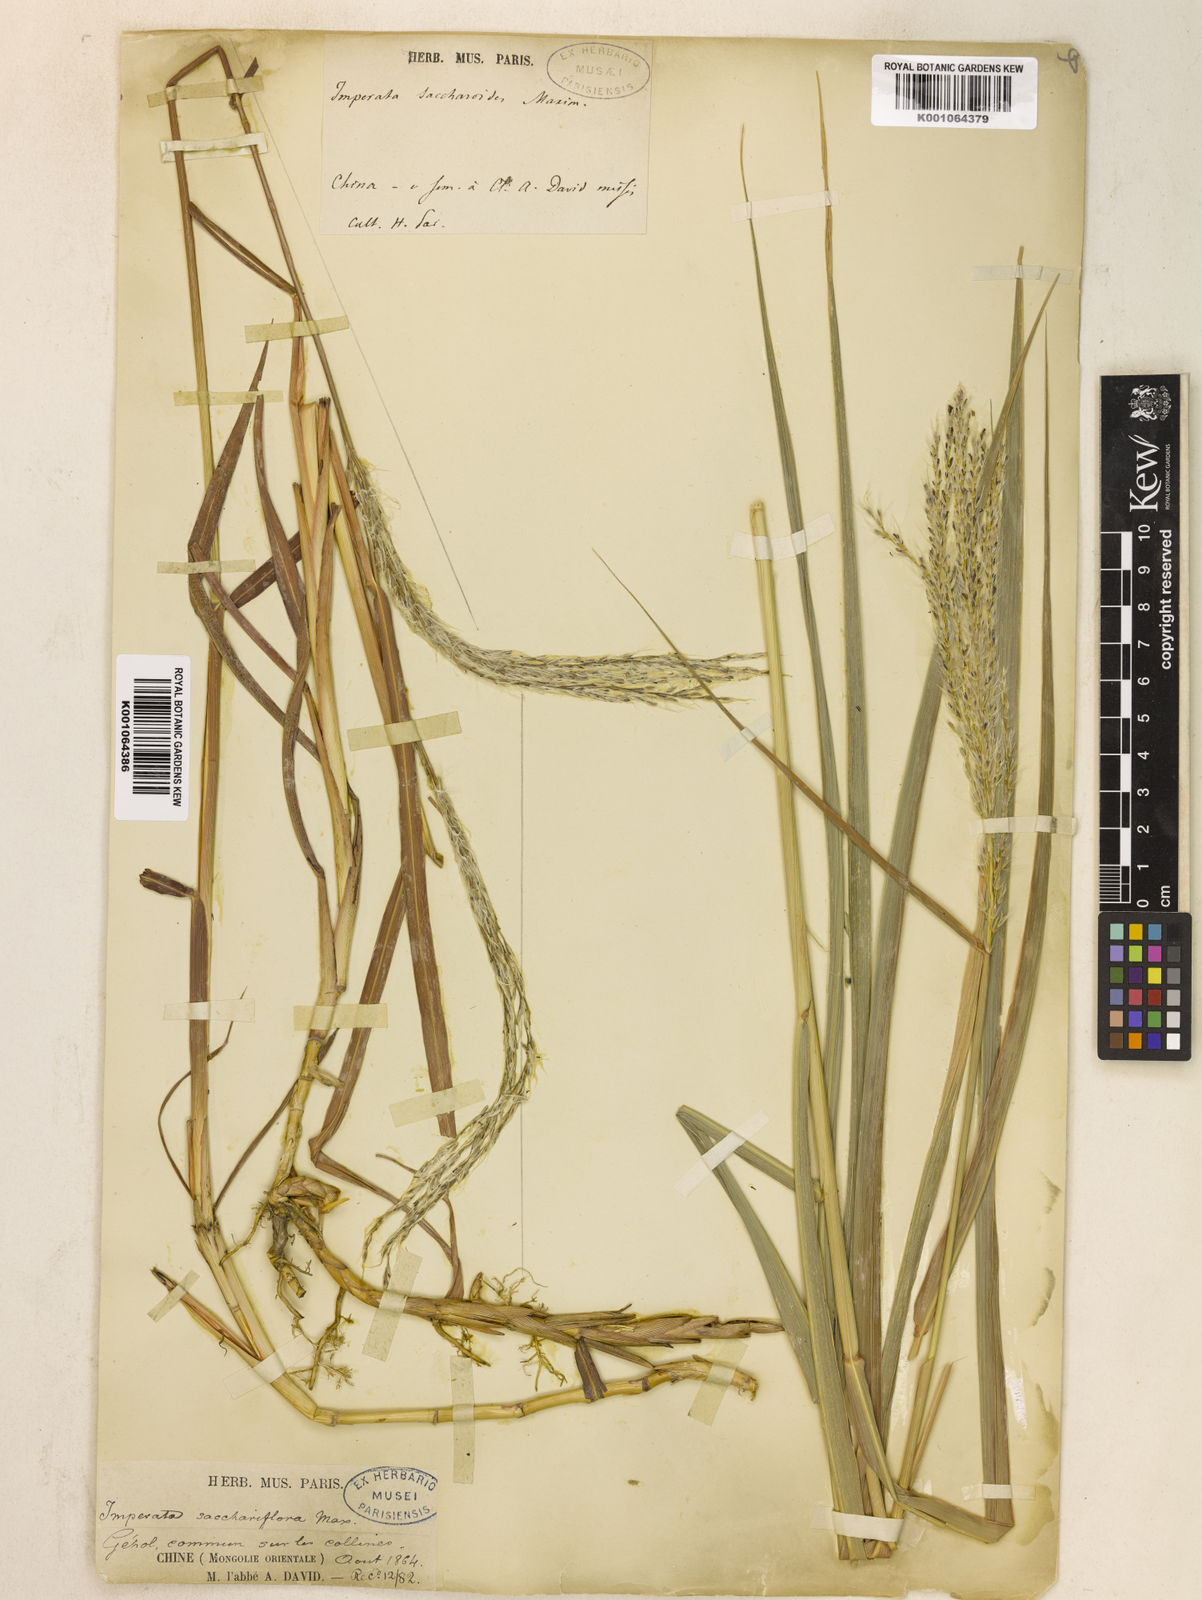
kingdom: Plantae
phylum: Tracheophyta
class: Liliopsida
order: Poales
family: Poaceae
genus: Miscanthus
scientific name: Miscanthus
